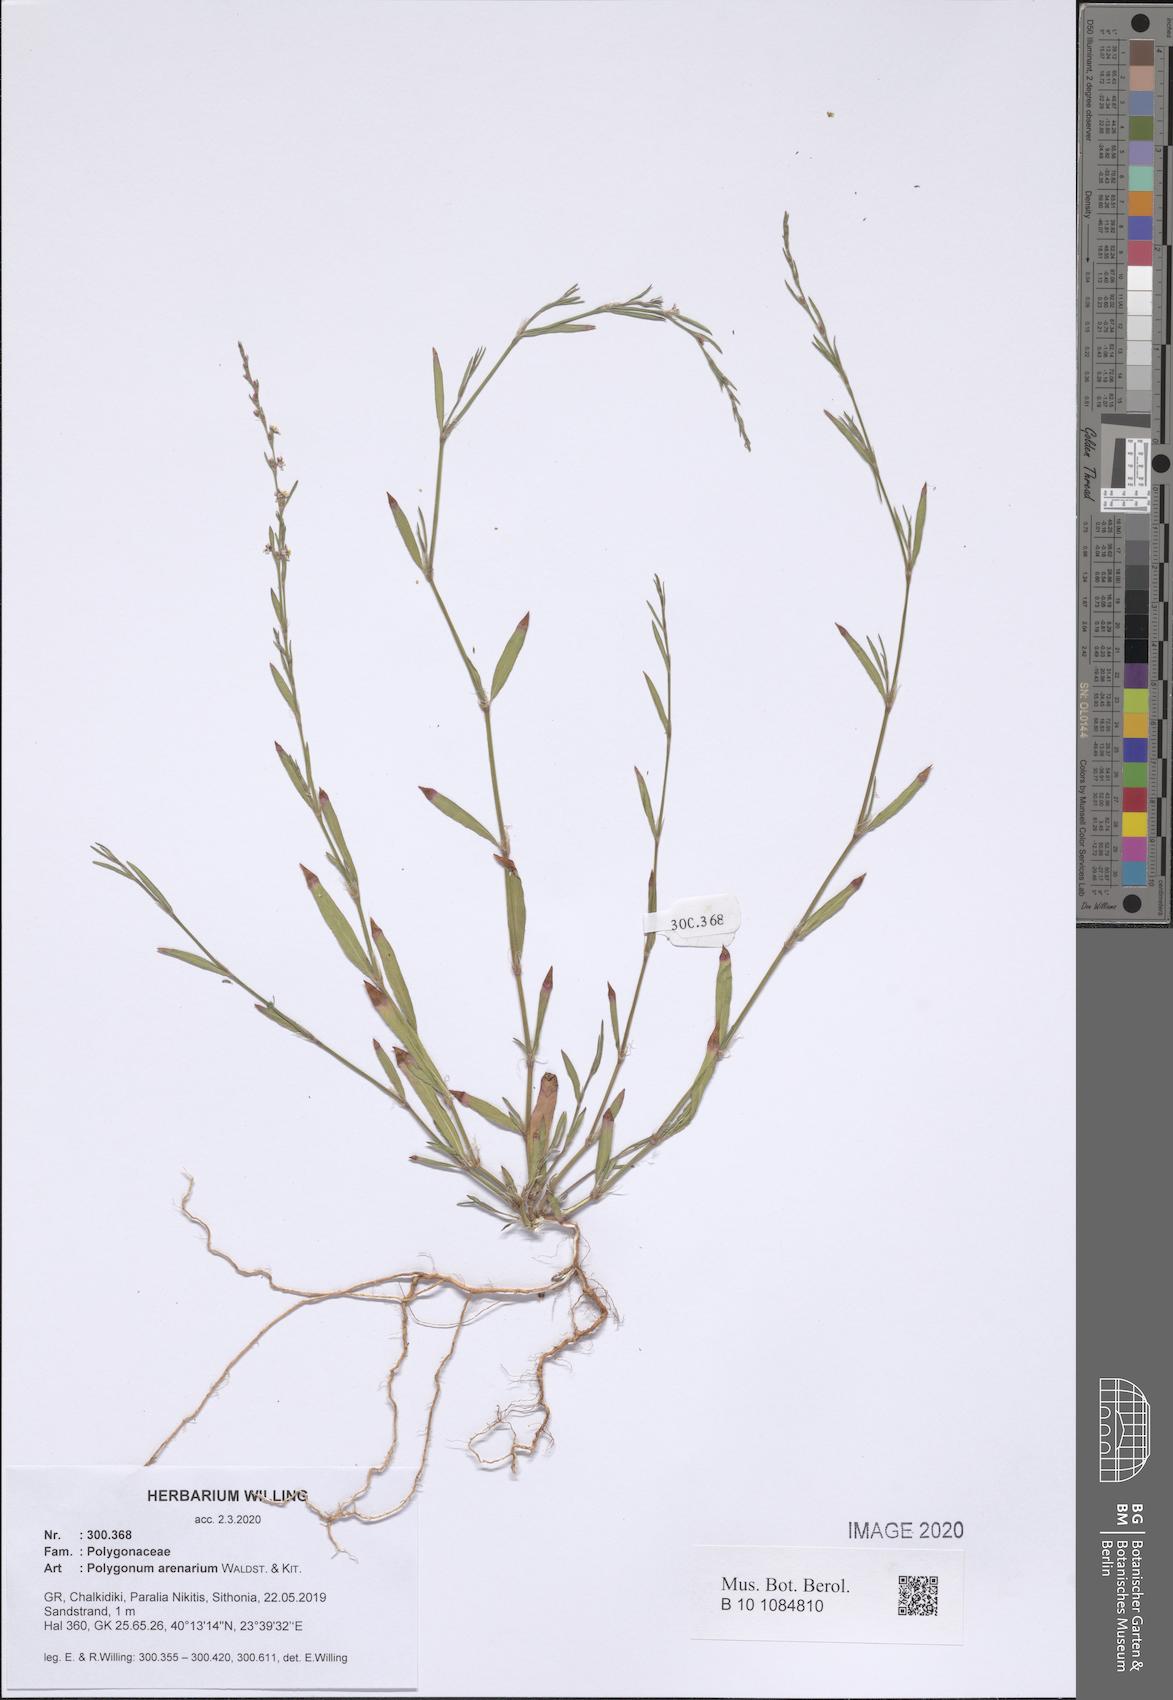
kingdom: Plantae
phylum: Tracheophyta
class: Magnoliopsida
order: Caryophyllales
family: Polygonaceae
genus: Polygonum
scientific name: Polygonum arenarium
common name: Lesser red-knotgrass
